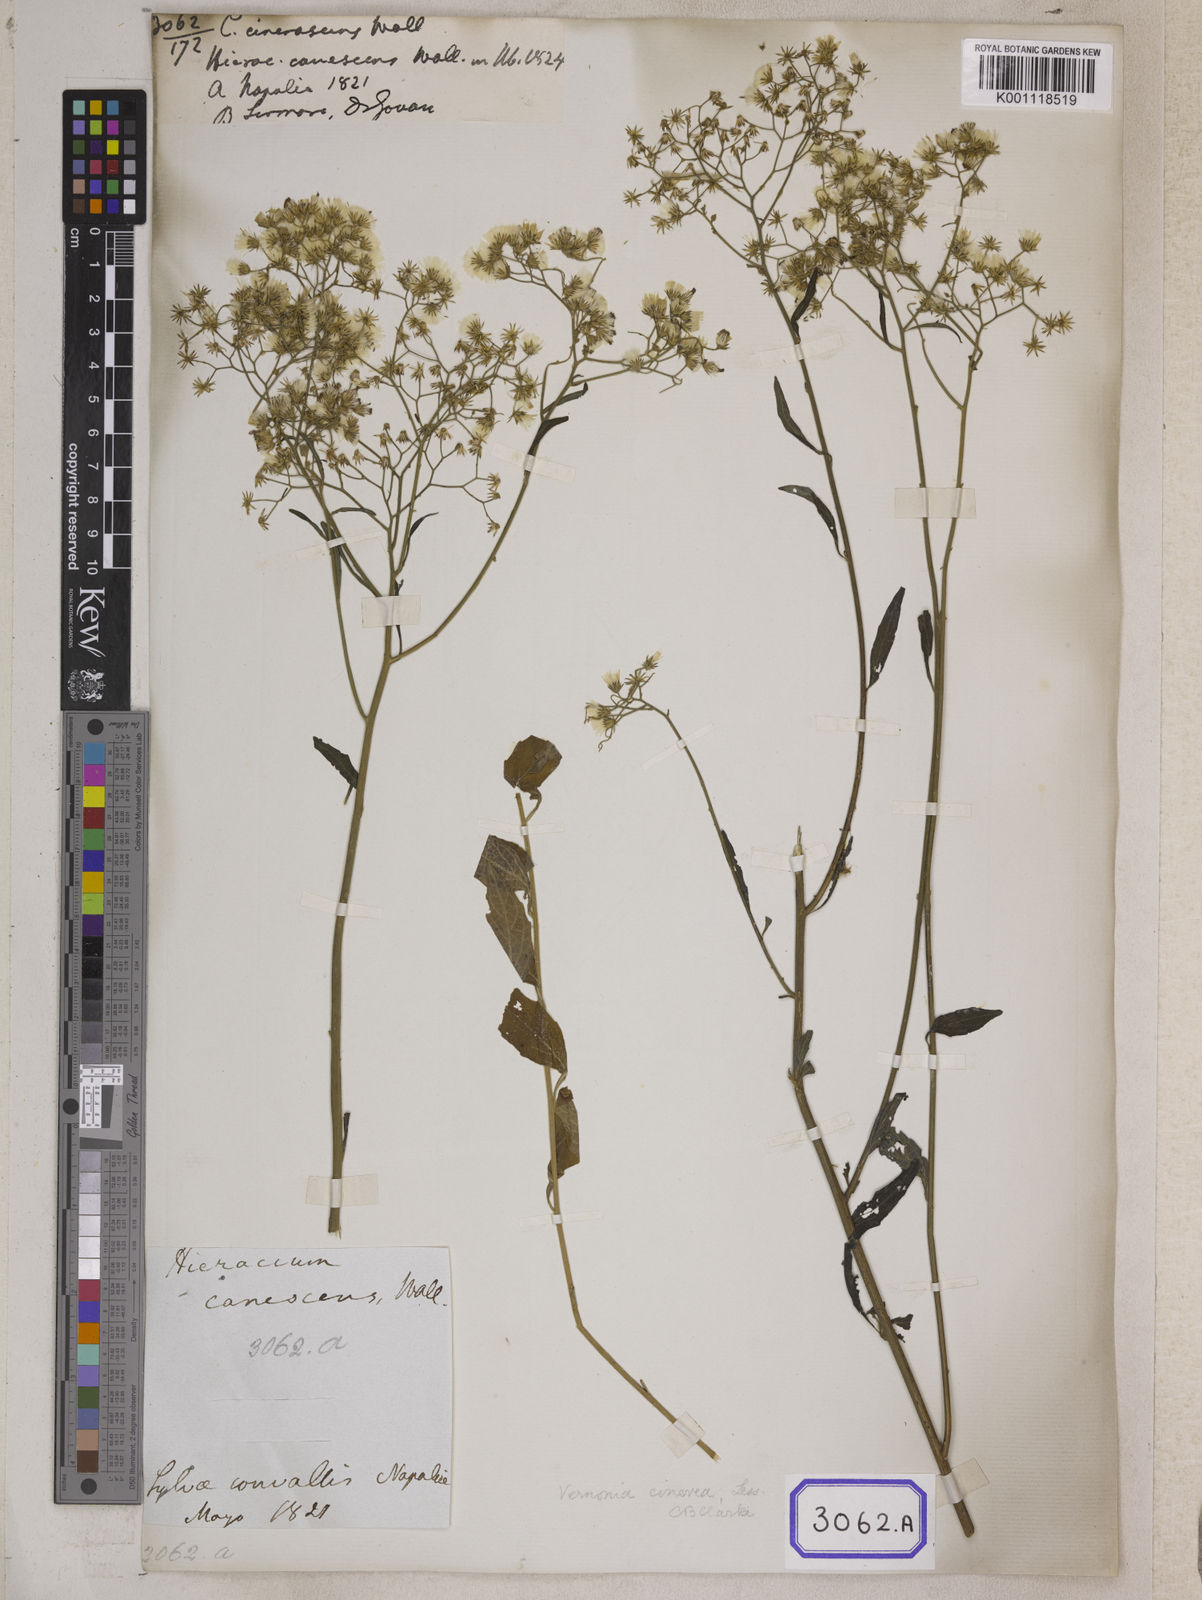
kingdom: Plantae
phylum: Tracheophyta
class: Magnoliopsida
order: Asterales
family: Asteraceae
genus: Cyanthillium
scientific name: Cyanthillium cinereum
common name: Little ironweed
